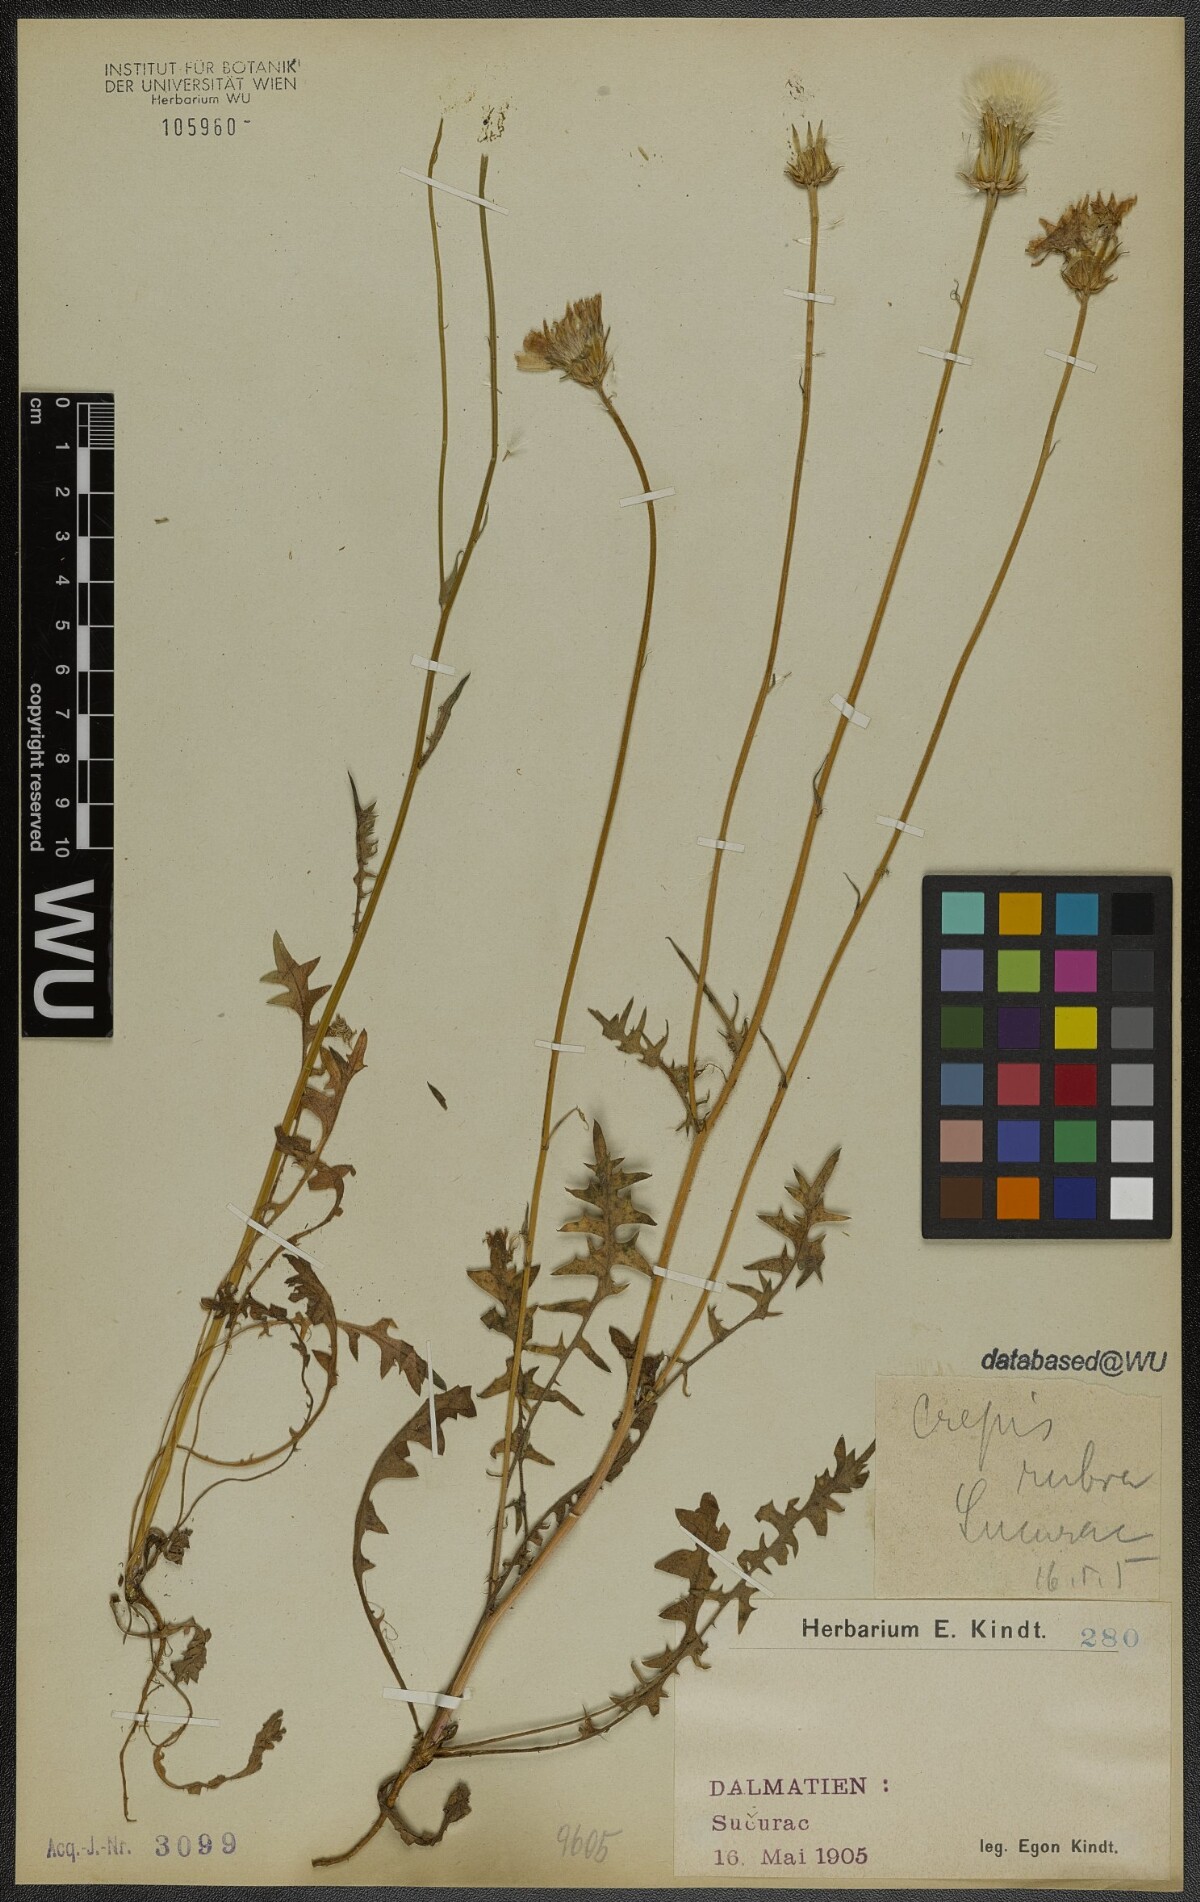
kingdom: Plantae
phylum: Tracheophyta
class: Magnoliopsida
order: Asterales
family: Asteraceae
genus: Crepis
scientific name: Crepis rubra
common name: Pink hawk's-beard
